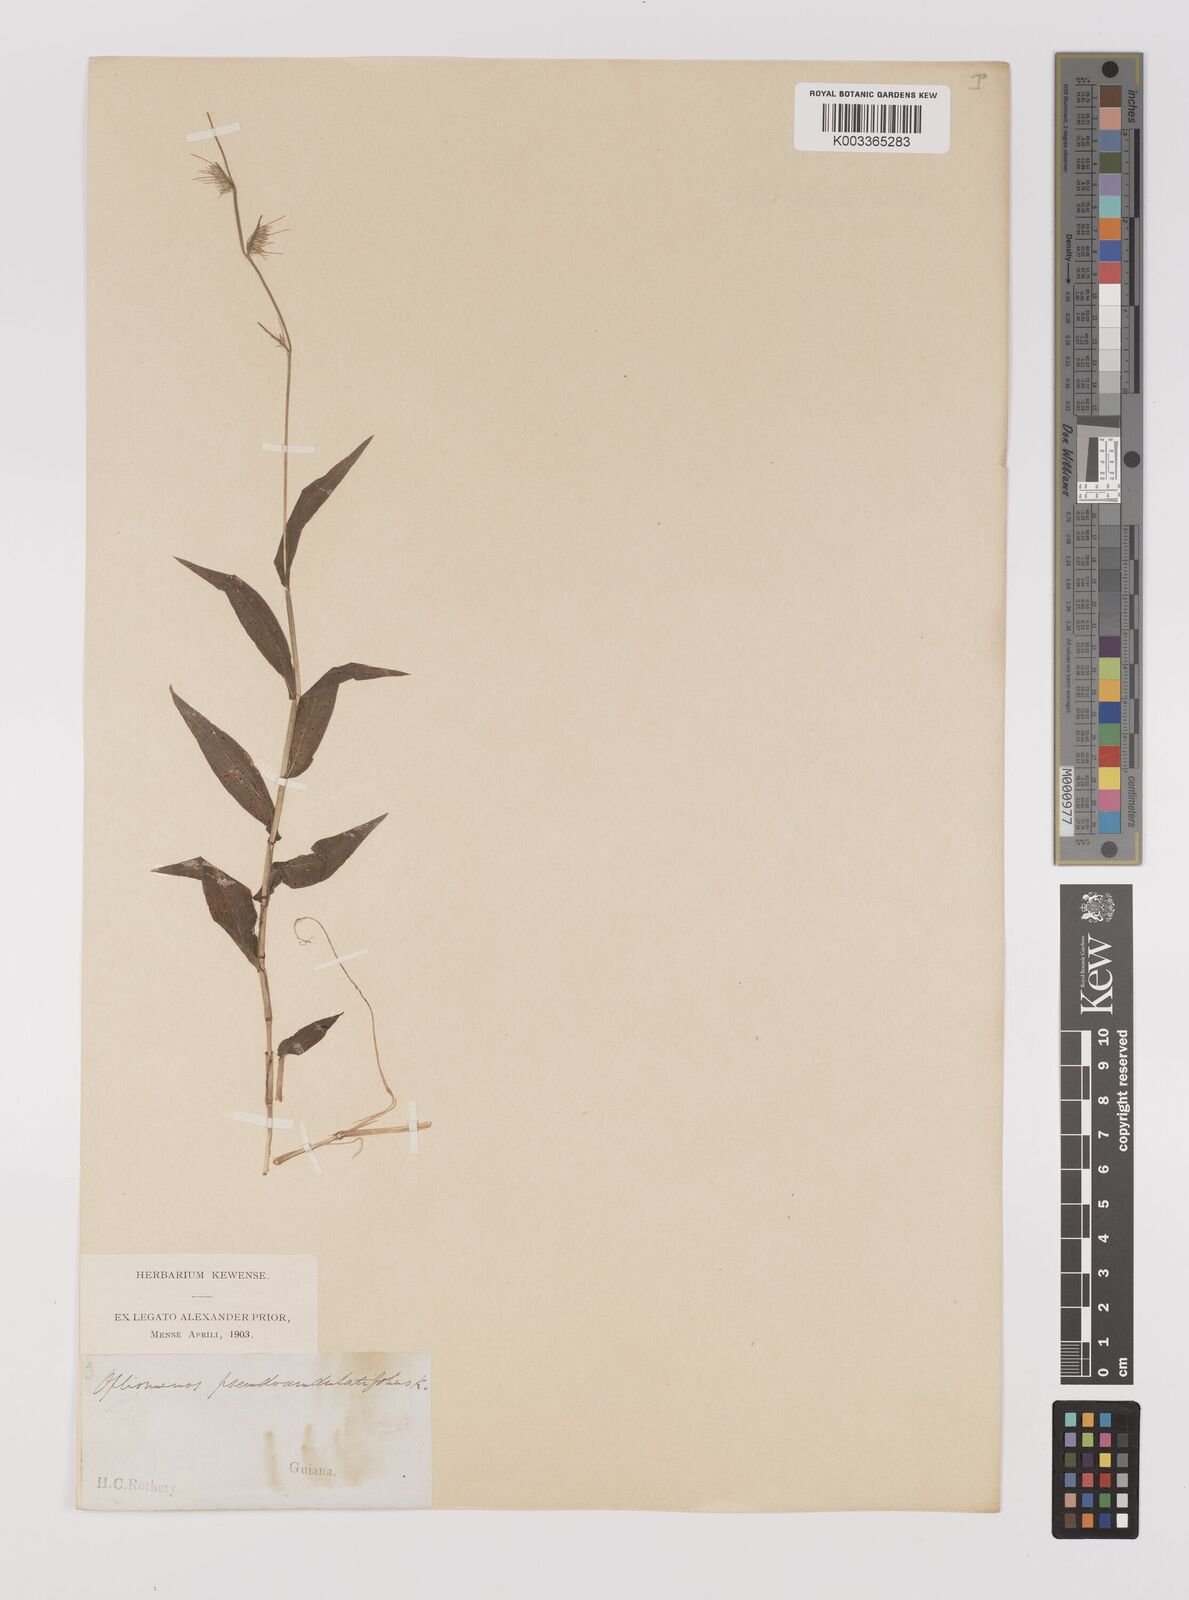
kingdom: Plantae
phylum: Tracheophyta
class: Liliopsida
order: Poales
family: Poaceae
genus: Oplismenus
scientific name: Oplismenus hirtellus
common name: Basketgrass
